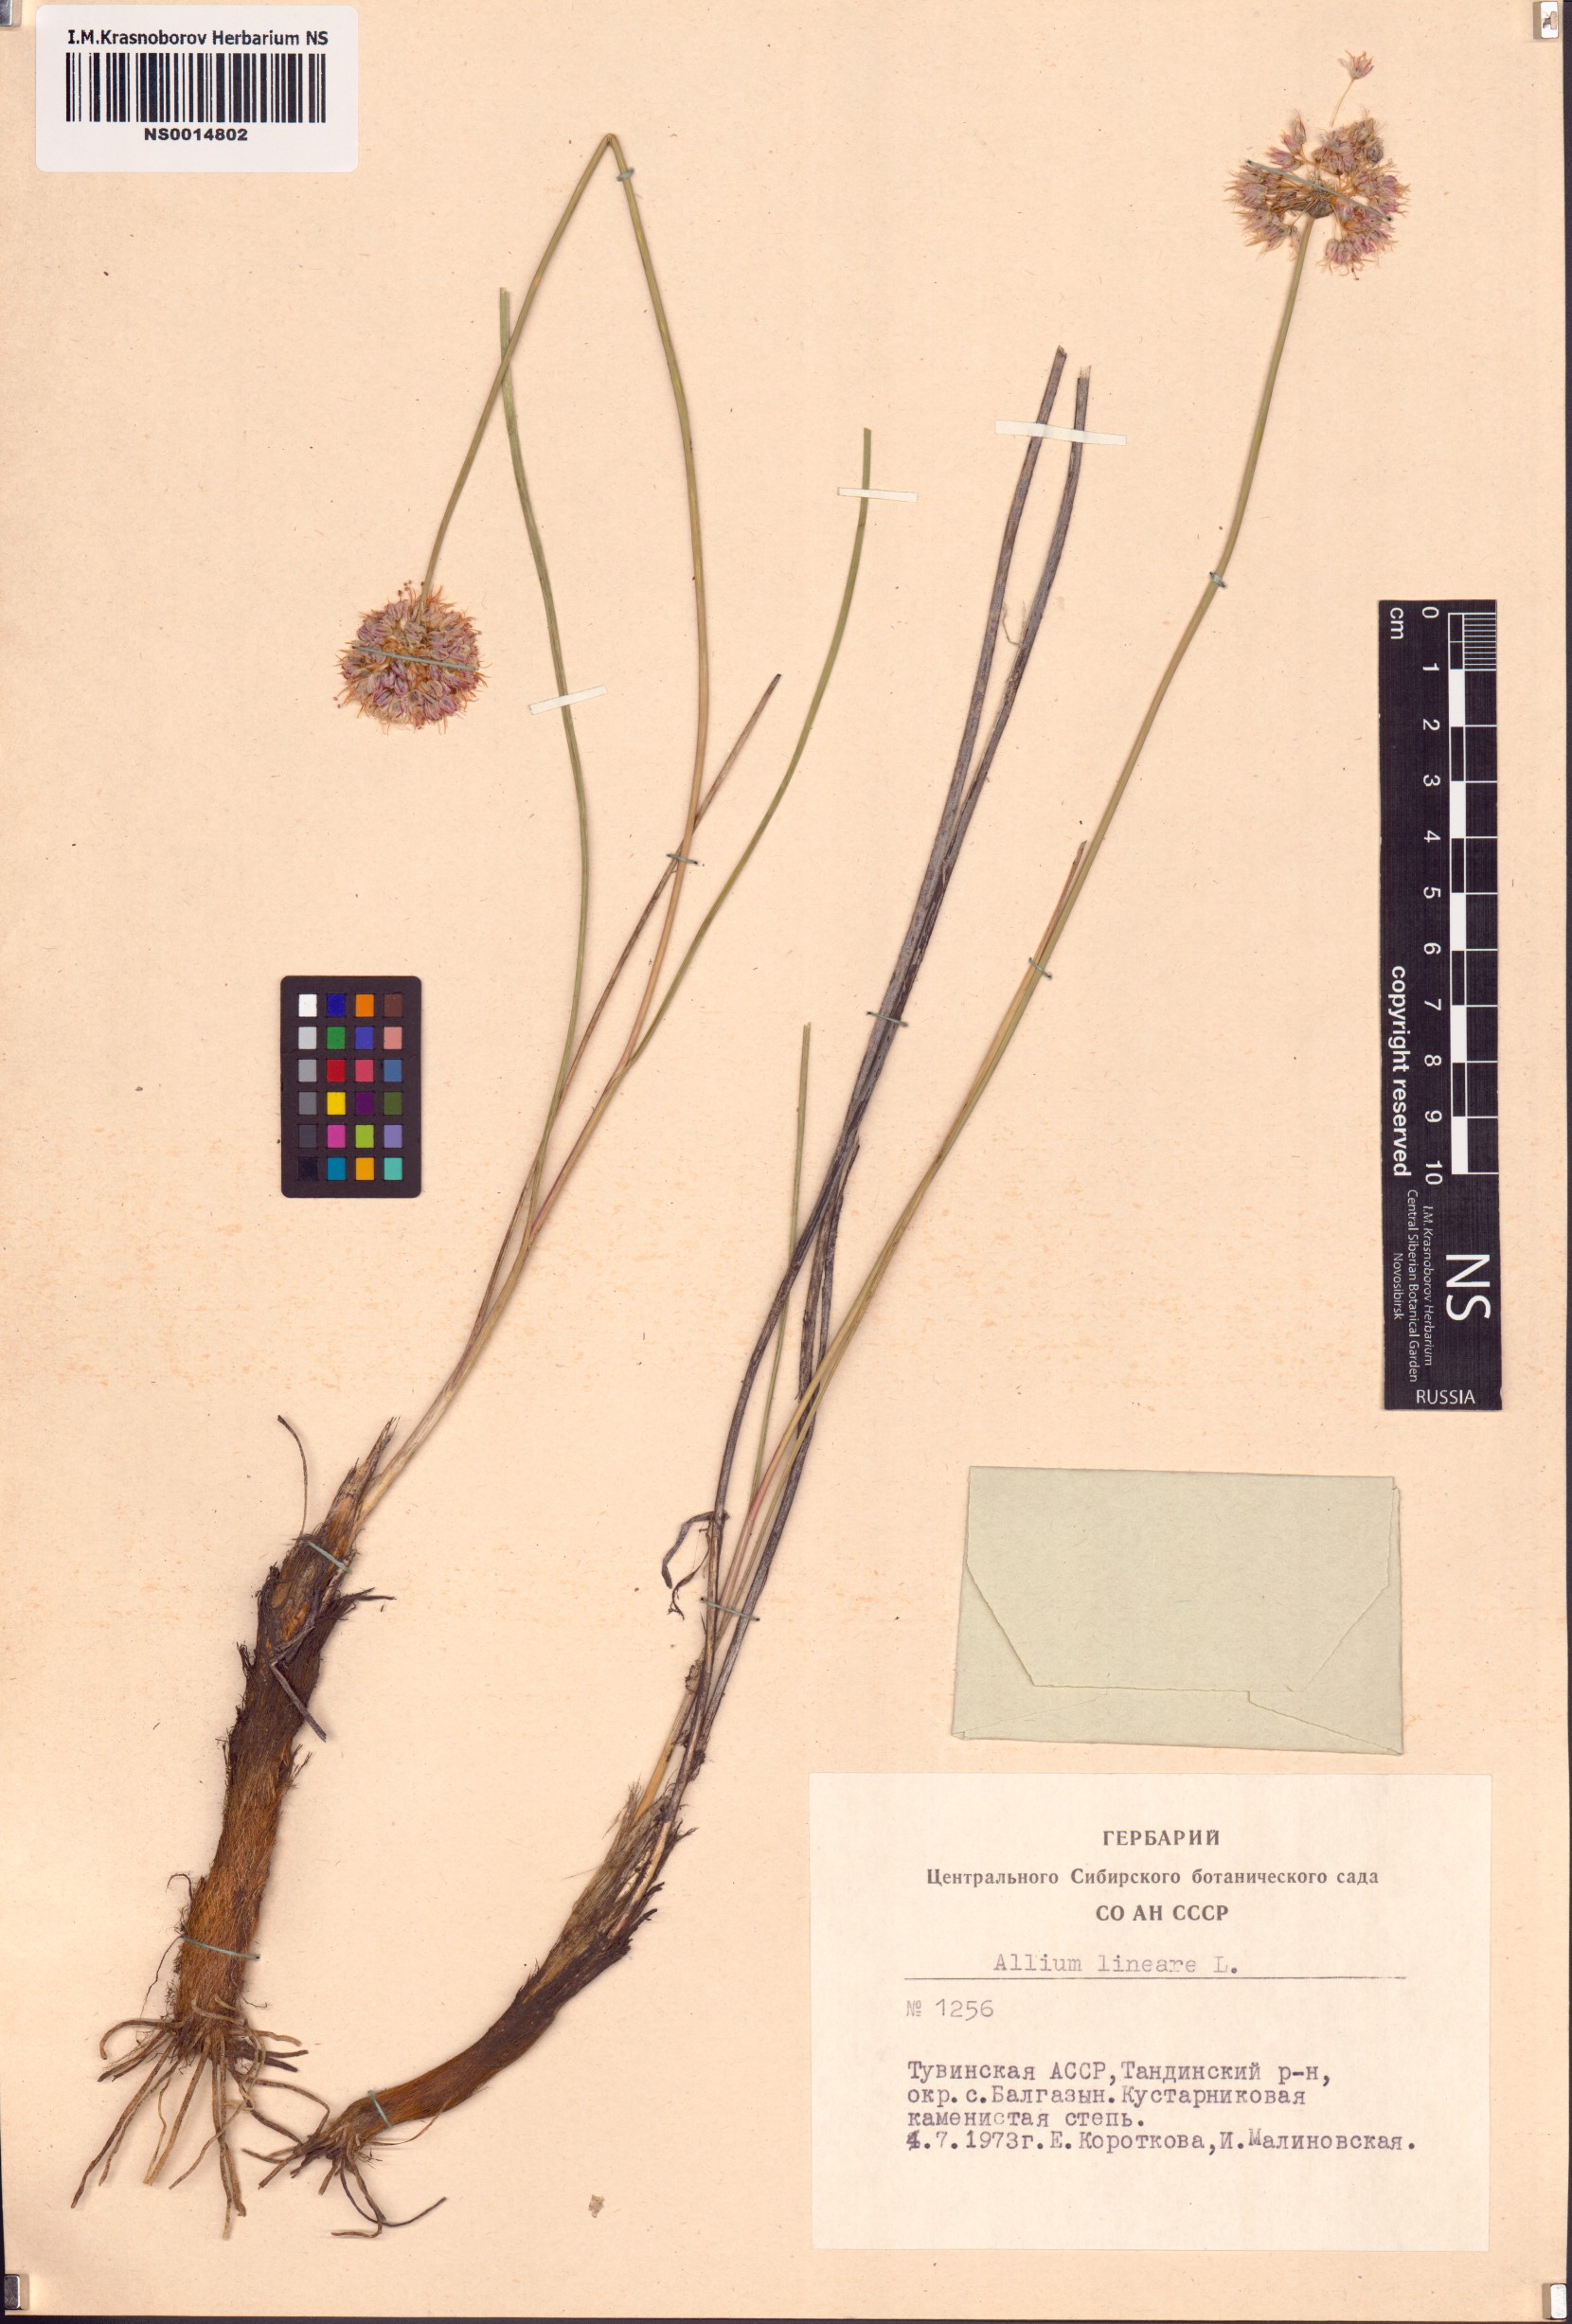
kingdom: Plantae
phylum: Tracheophyta
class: Liliopsida
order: Asparagales
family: Amaryllidaceae
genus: Allium
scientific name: Allium lineare
